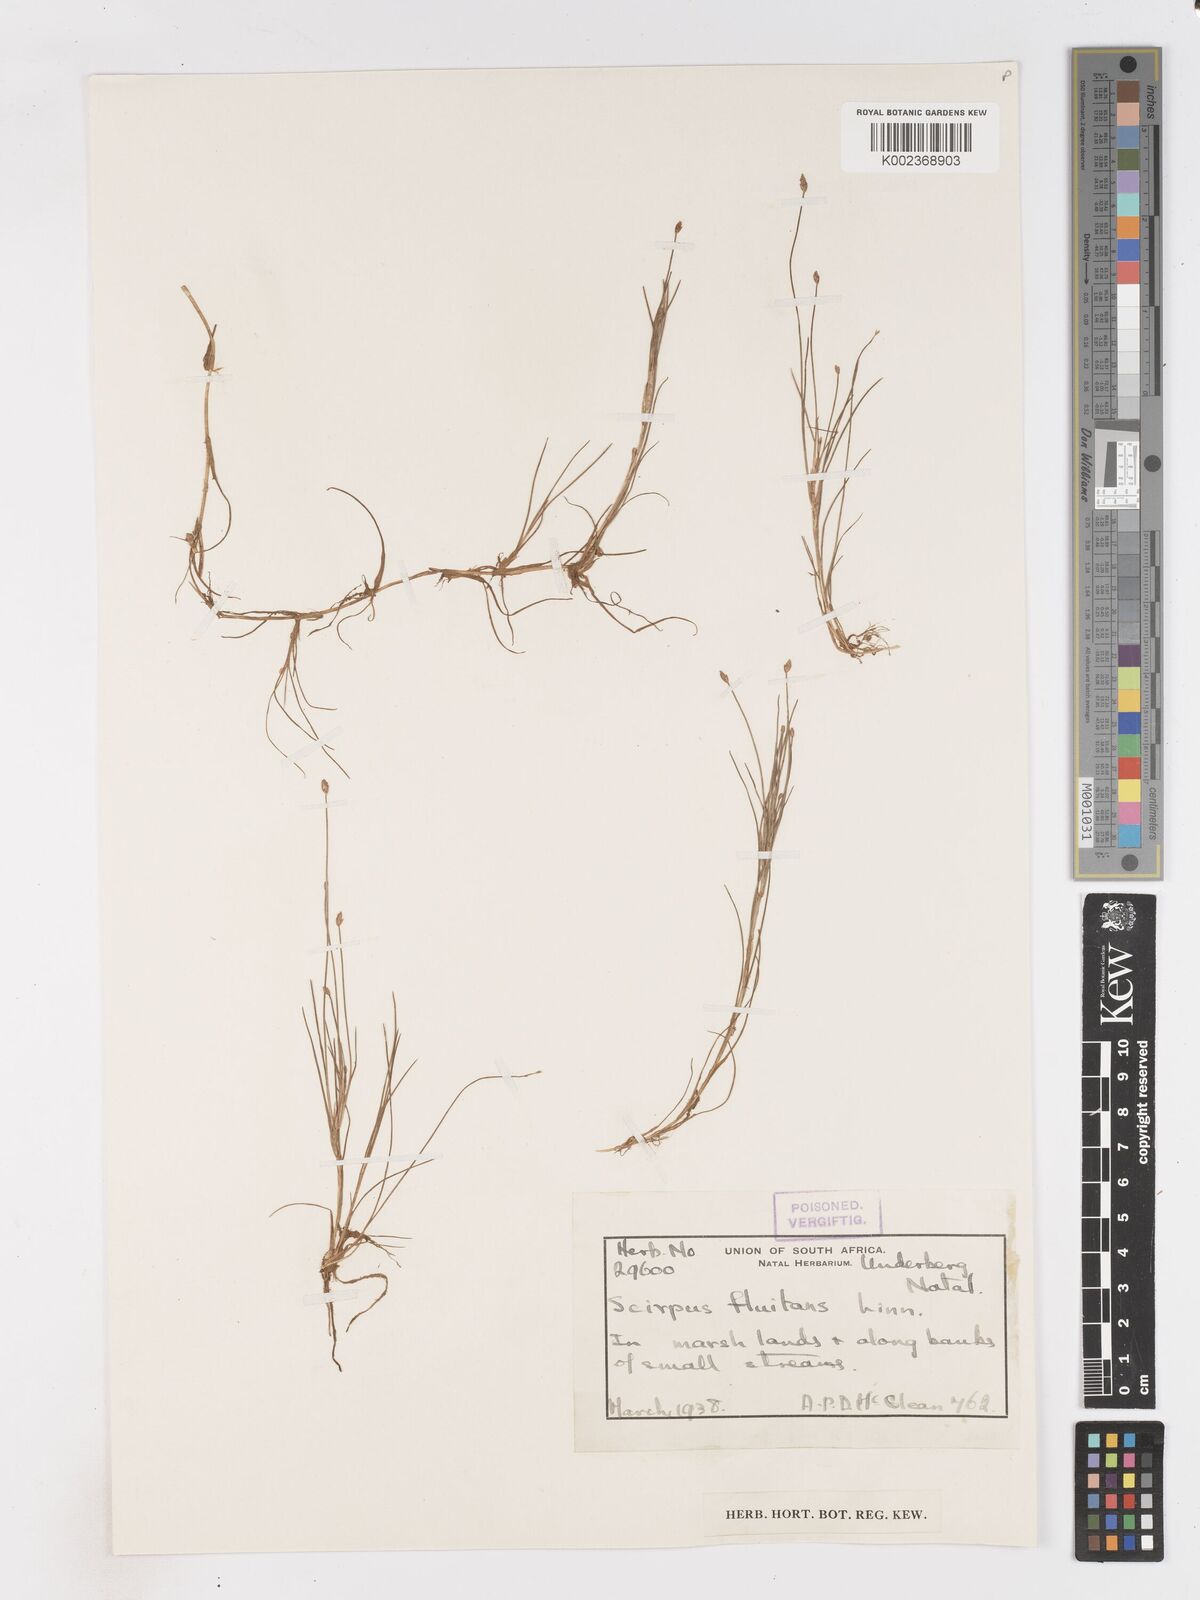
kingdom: Plantae
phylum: Tracheophyta
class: Liliopsida
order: Poales
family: Cyperaceae
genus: Isolepis
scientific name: Isolepis fluitans
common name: Floating club-rush
